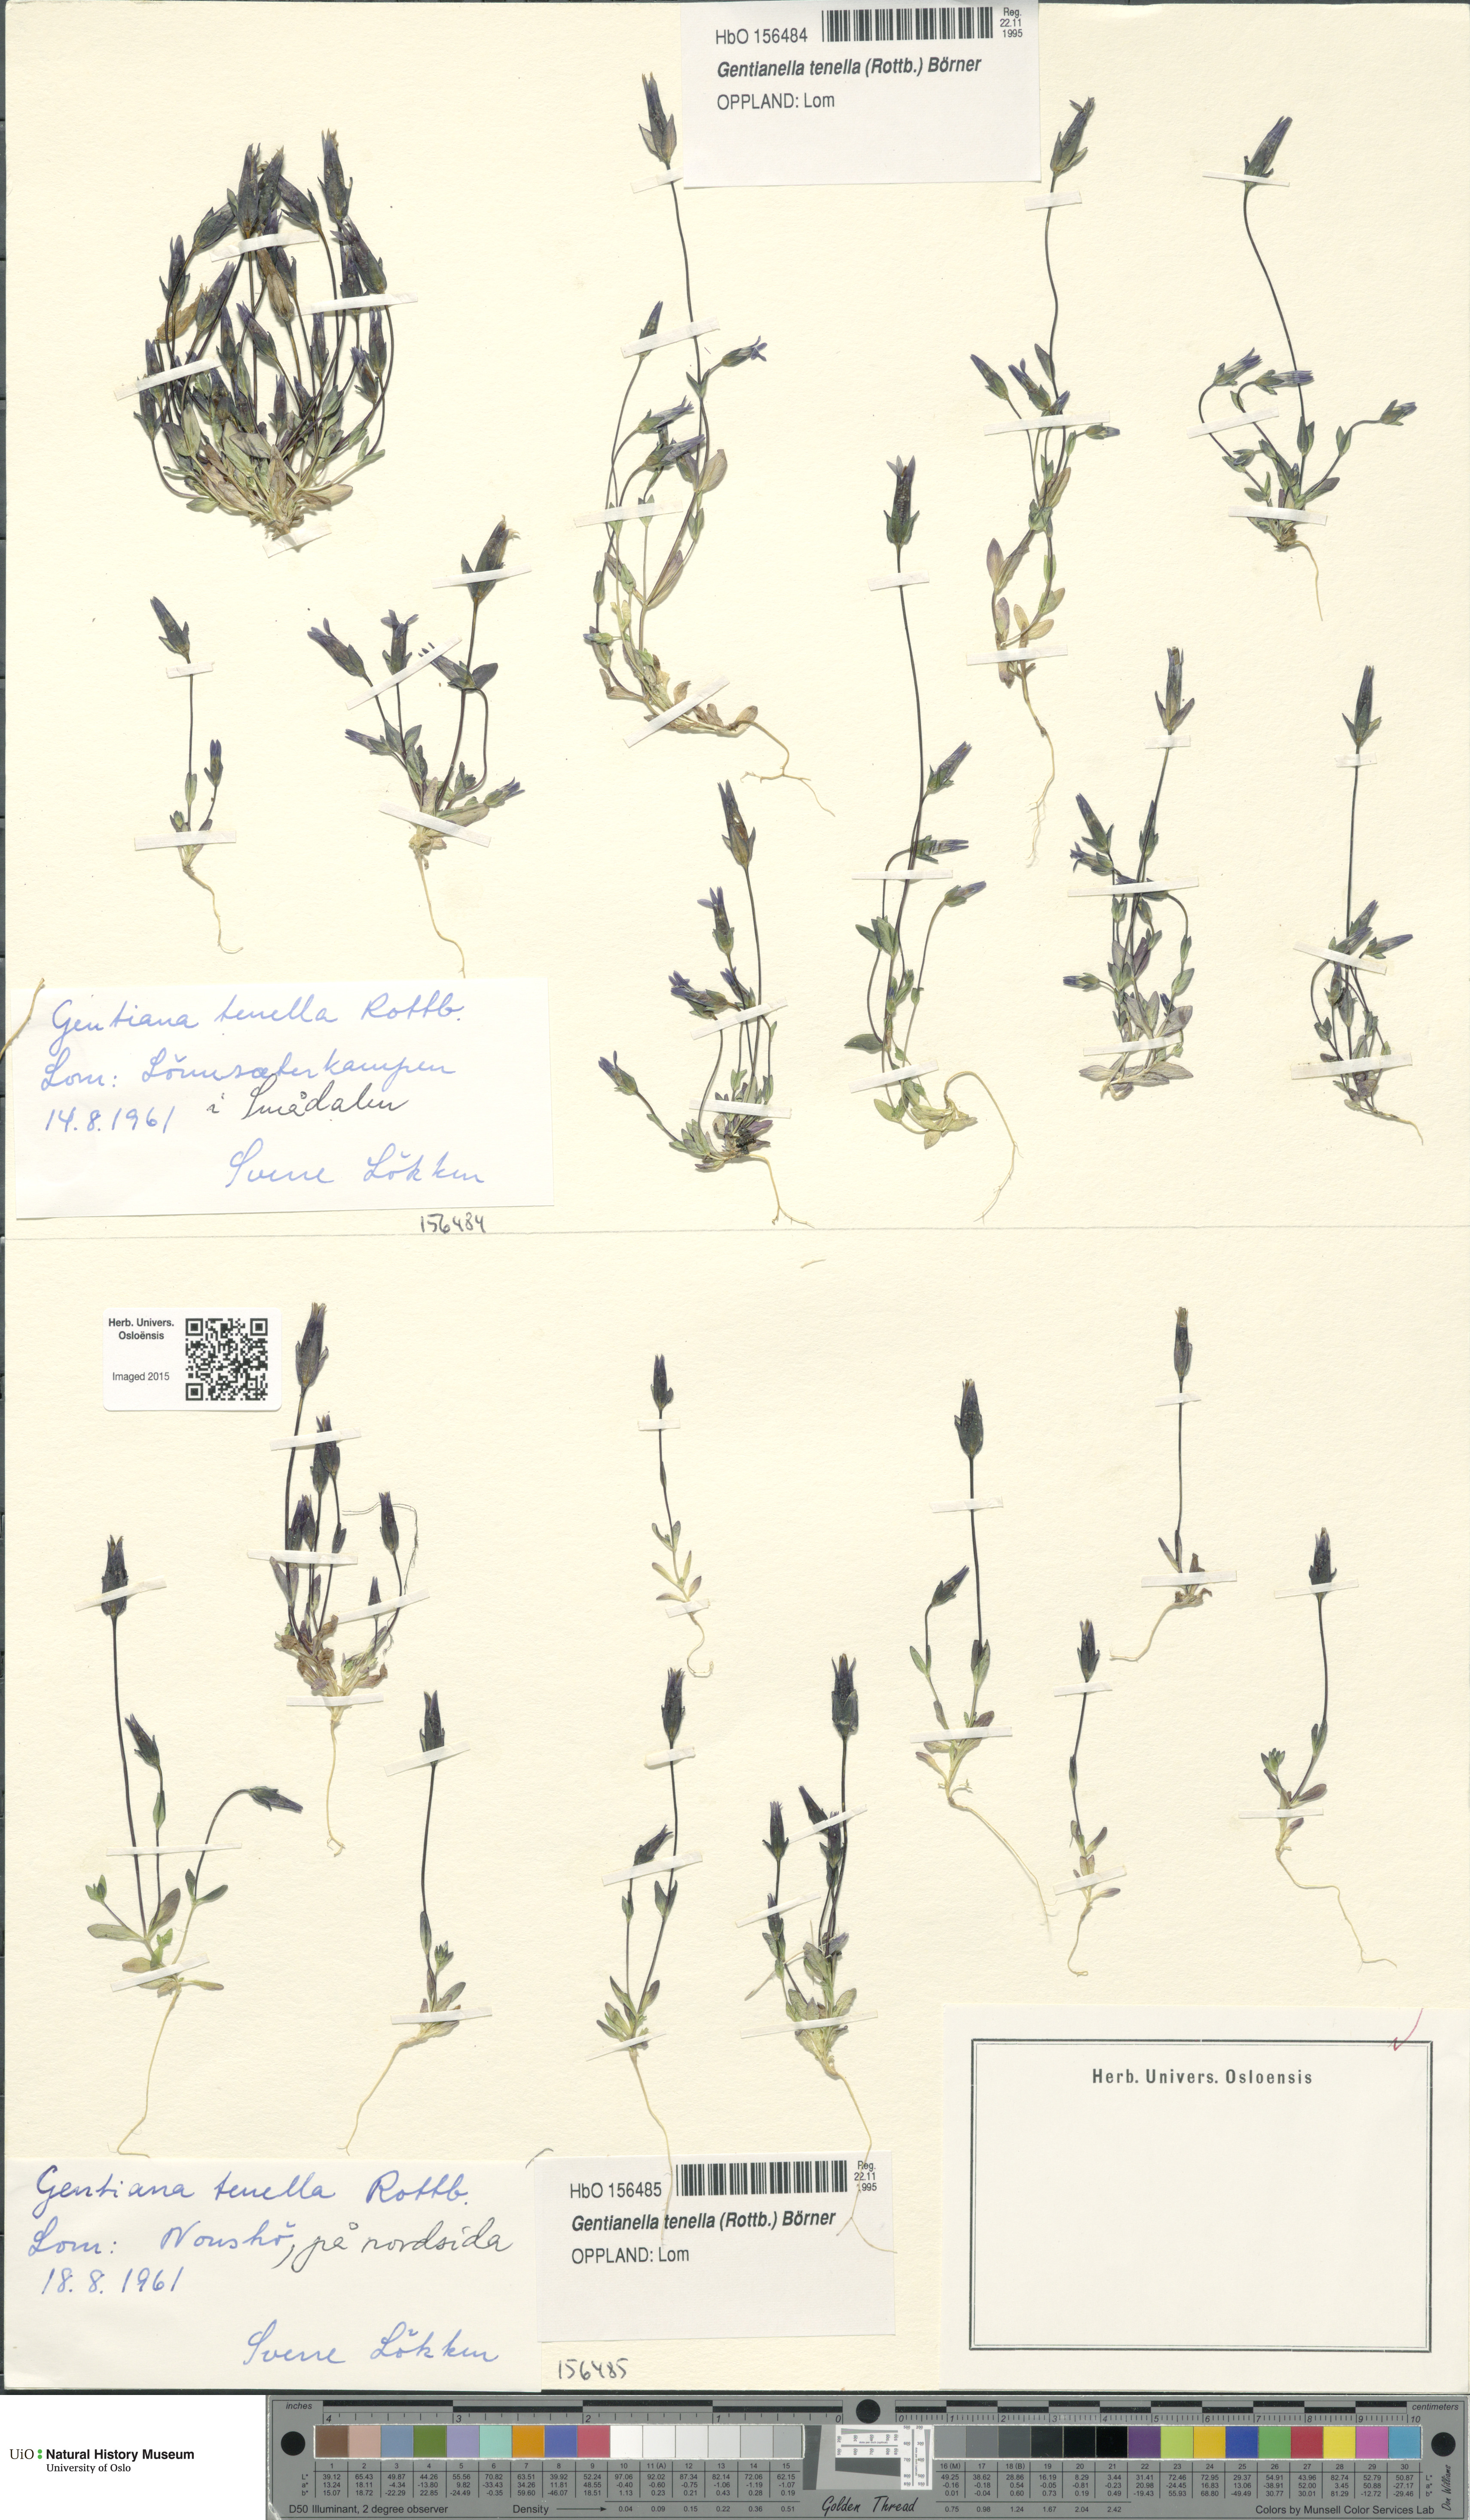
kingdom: Plantae
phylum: Tracheophyta
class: Magnoliopsida
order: Gentianales
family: Gentianaceae
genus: Comastoma
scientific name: Comastoma tenellum
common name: Dane's dwarf gentian
